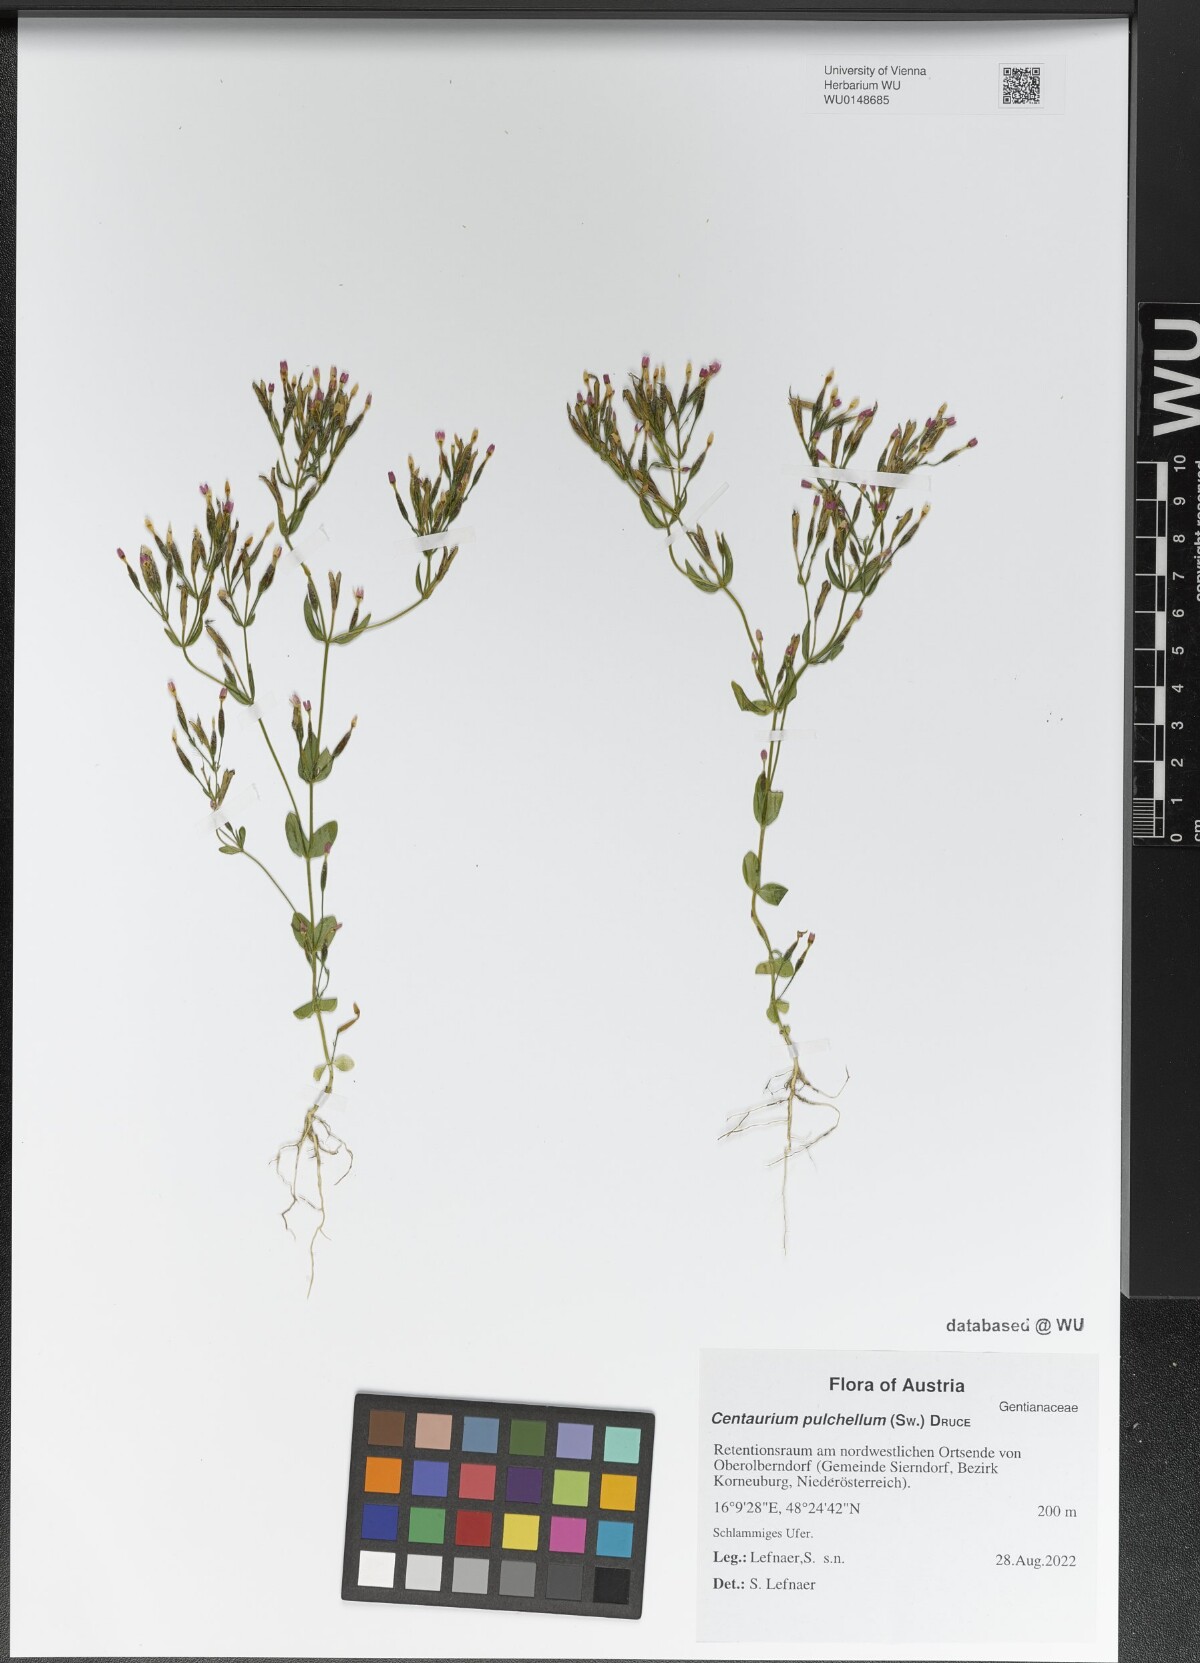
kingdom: Plantae
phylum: Tracheophyta
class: Magnoliopsida
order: Gentianales
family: Gentianaceae
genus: Centaurium
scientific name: Centaurium pulchellum
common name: Lesser centaury
